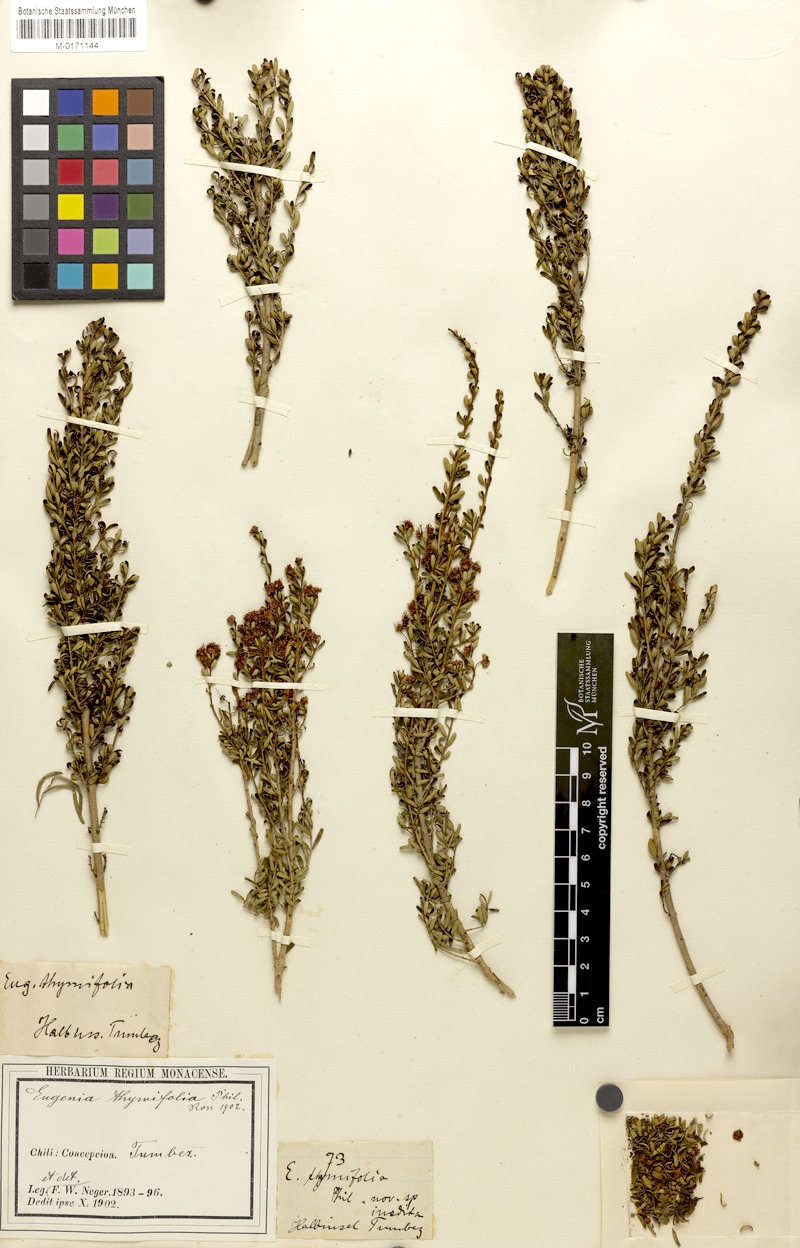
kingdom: Plantae
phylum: Tracheophyta
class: Magnoliopsida
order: Myrtales
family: Myrtaceae
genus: Myrceugenia
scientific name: Myrceugenia leptospermioides
